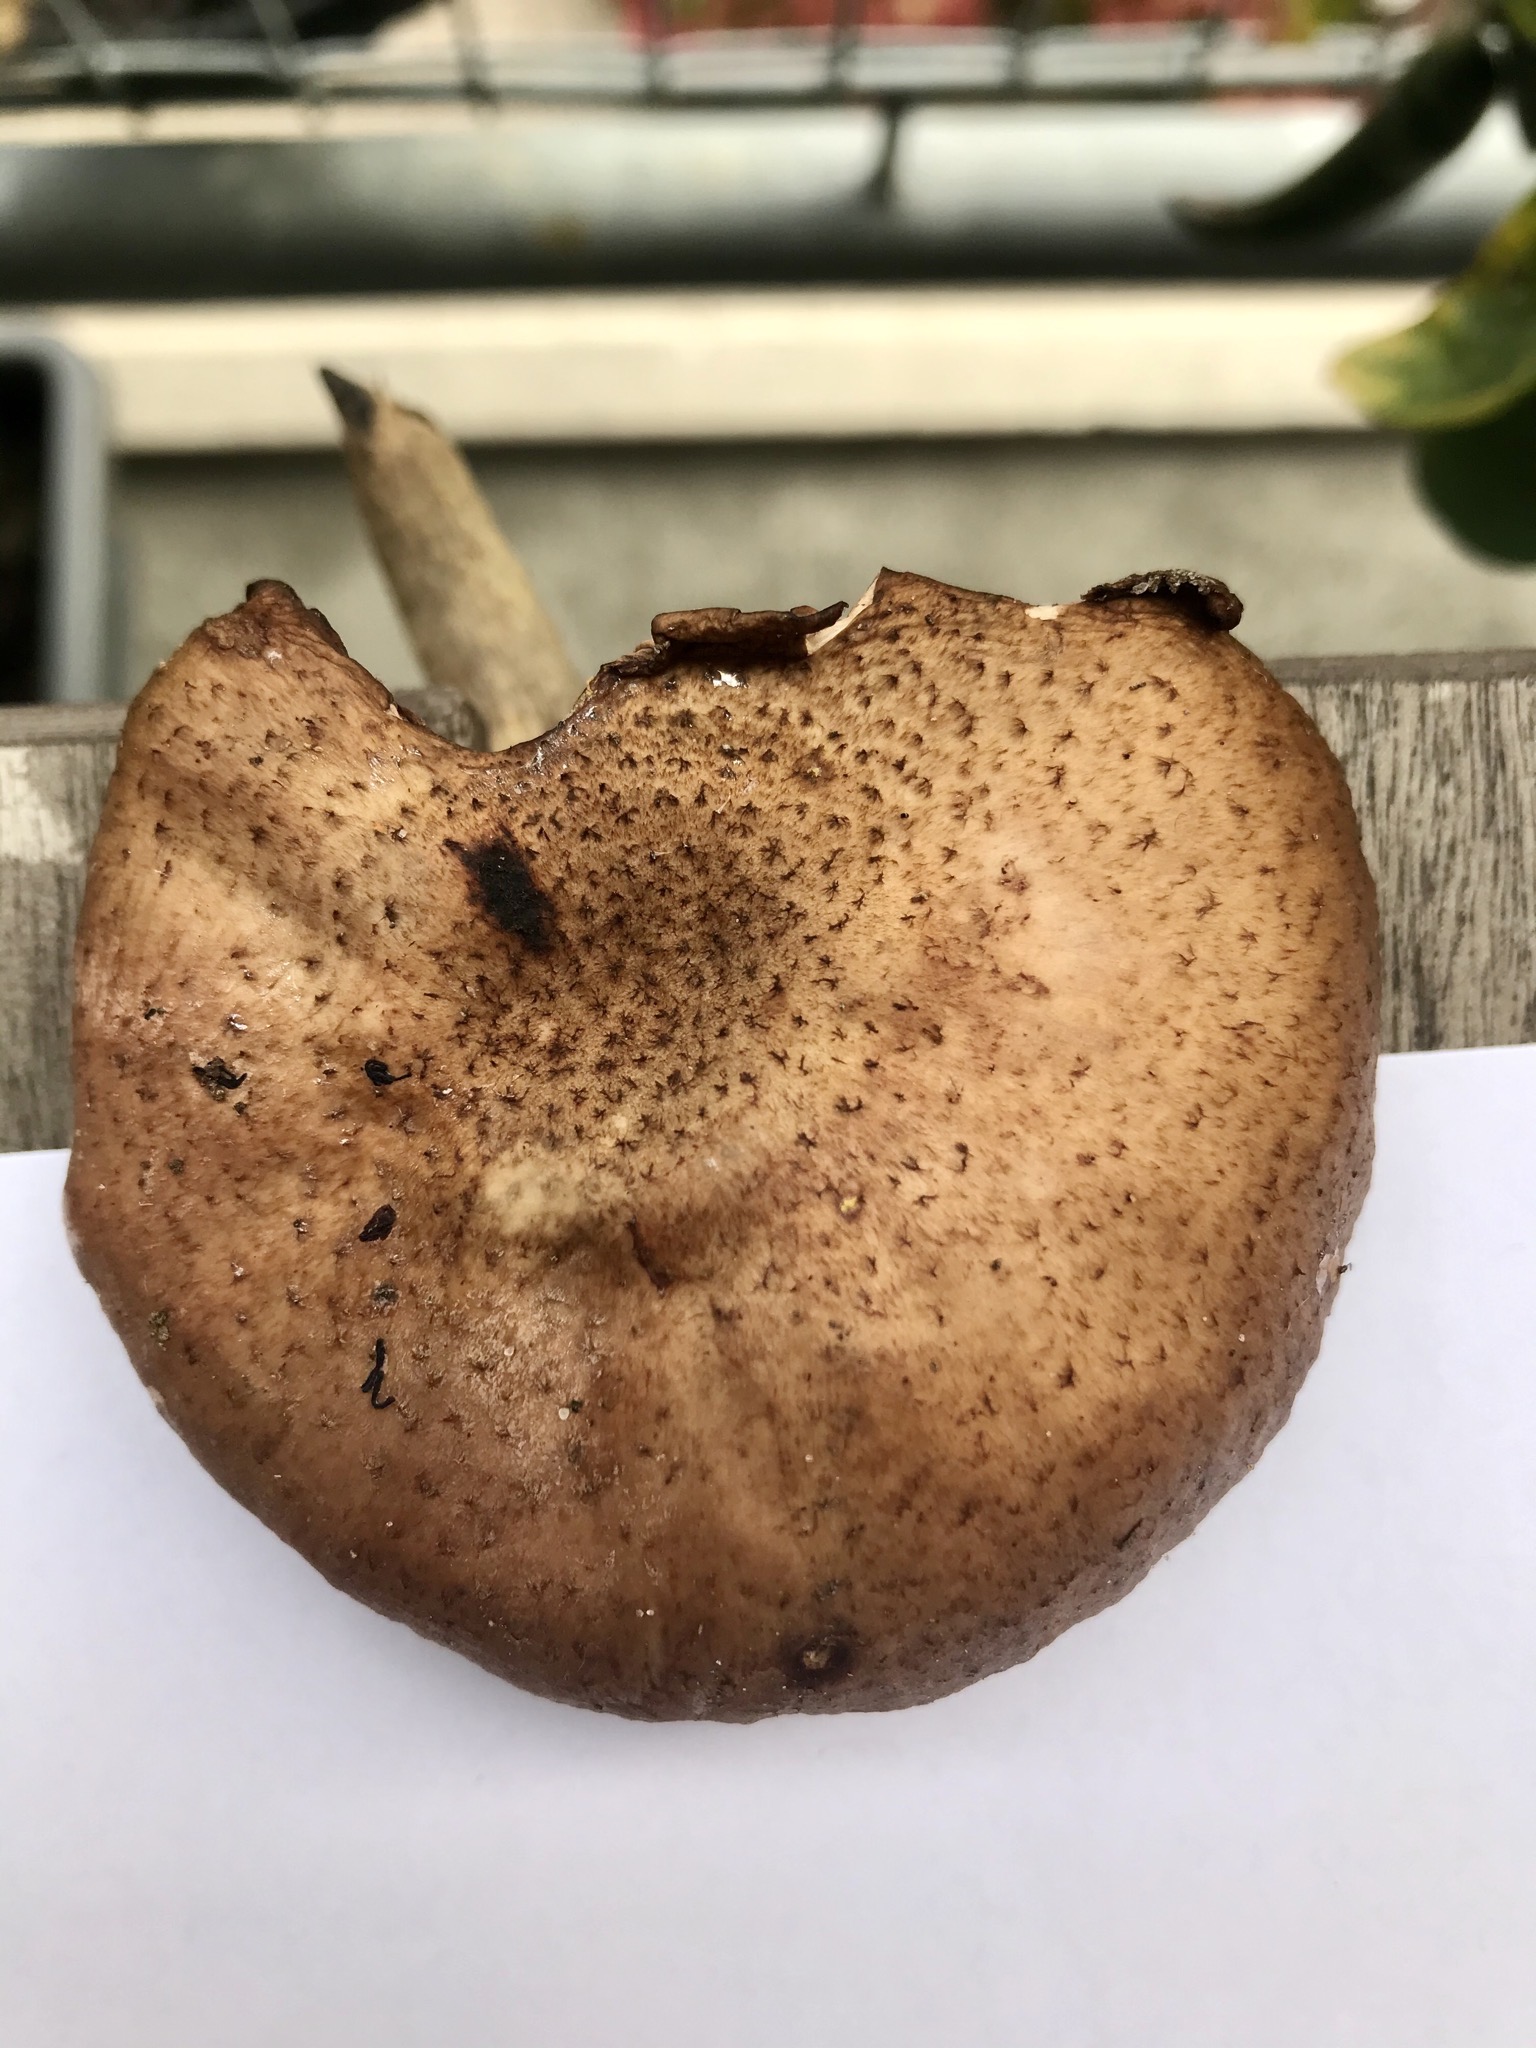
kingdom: Fungi
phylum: Basidiomycota
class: Agaricomycetes
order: Agaricales
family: Physalacriaceae
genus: Armillaria
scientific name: Armillaria lutea
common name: køllestokket honningsvamp
